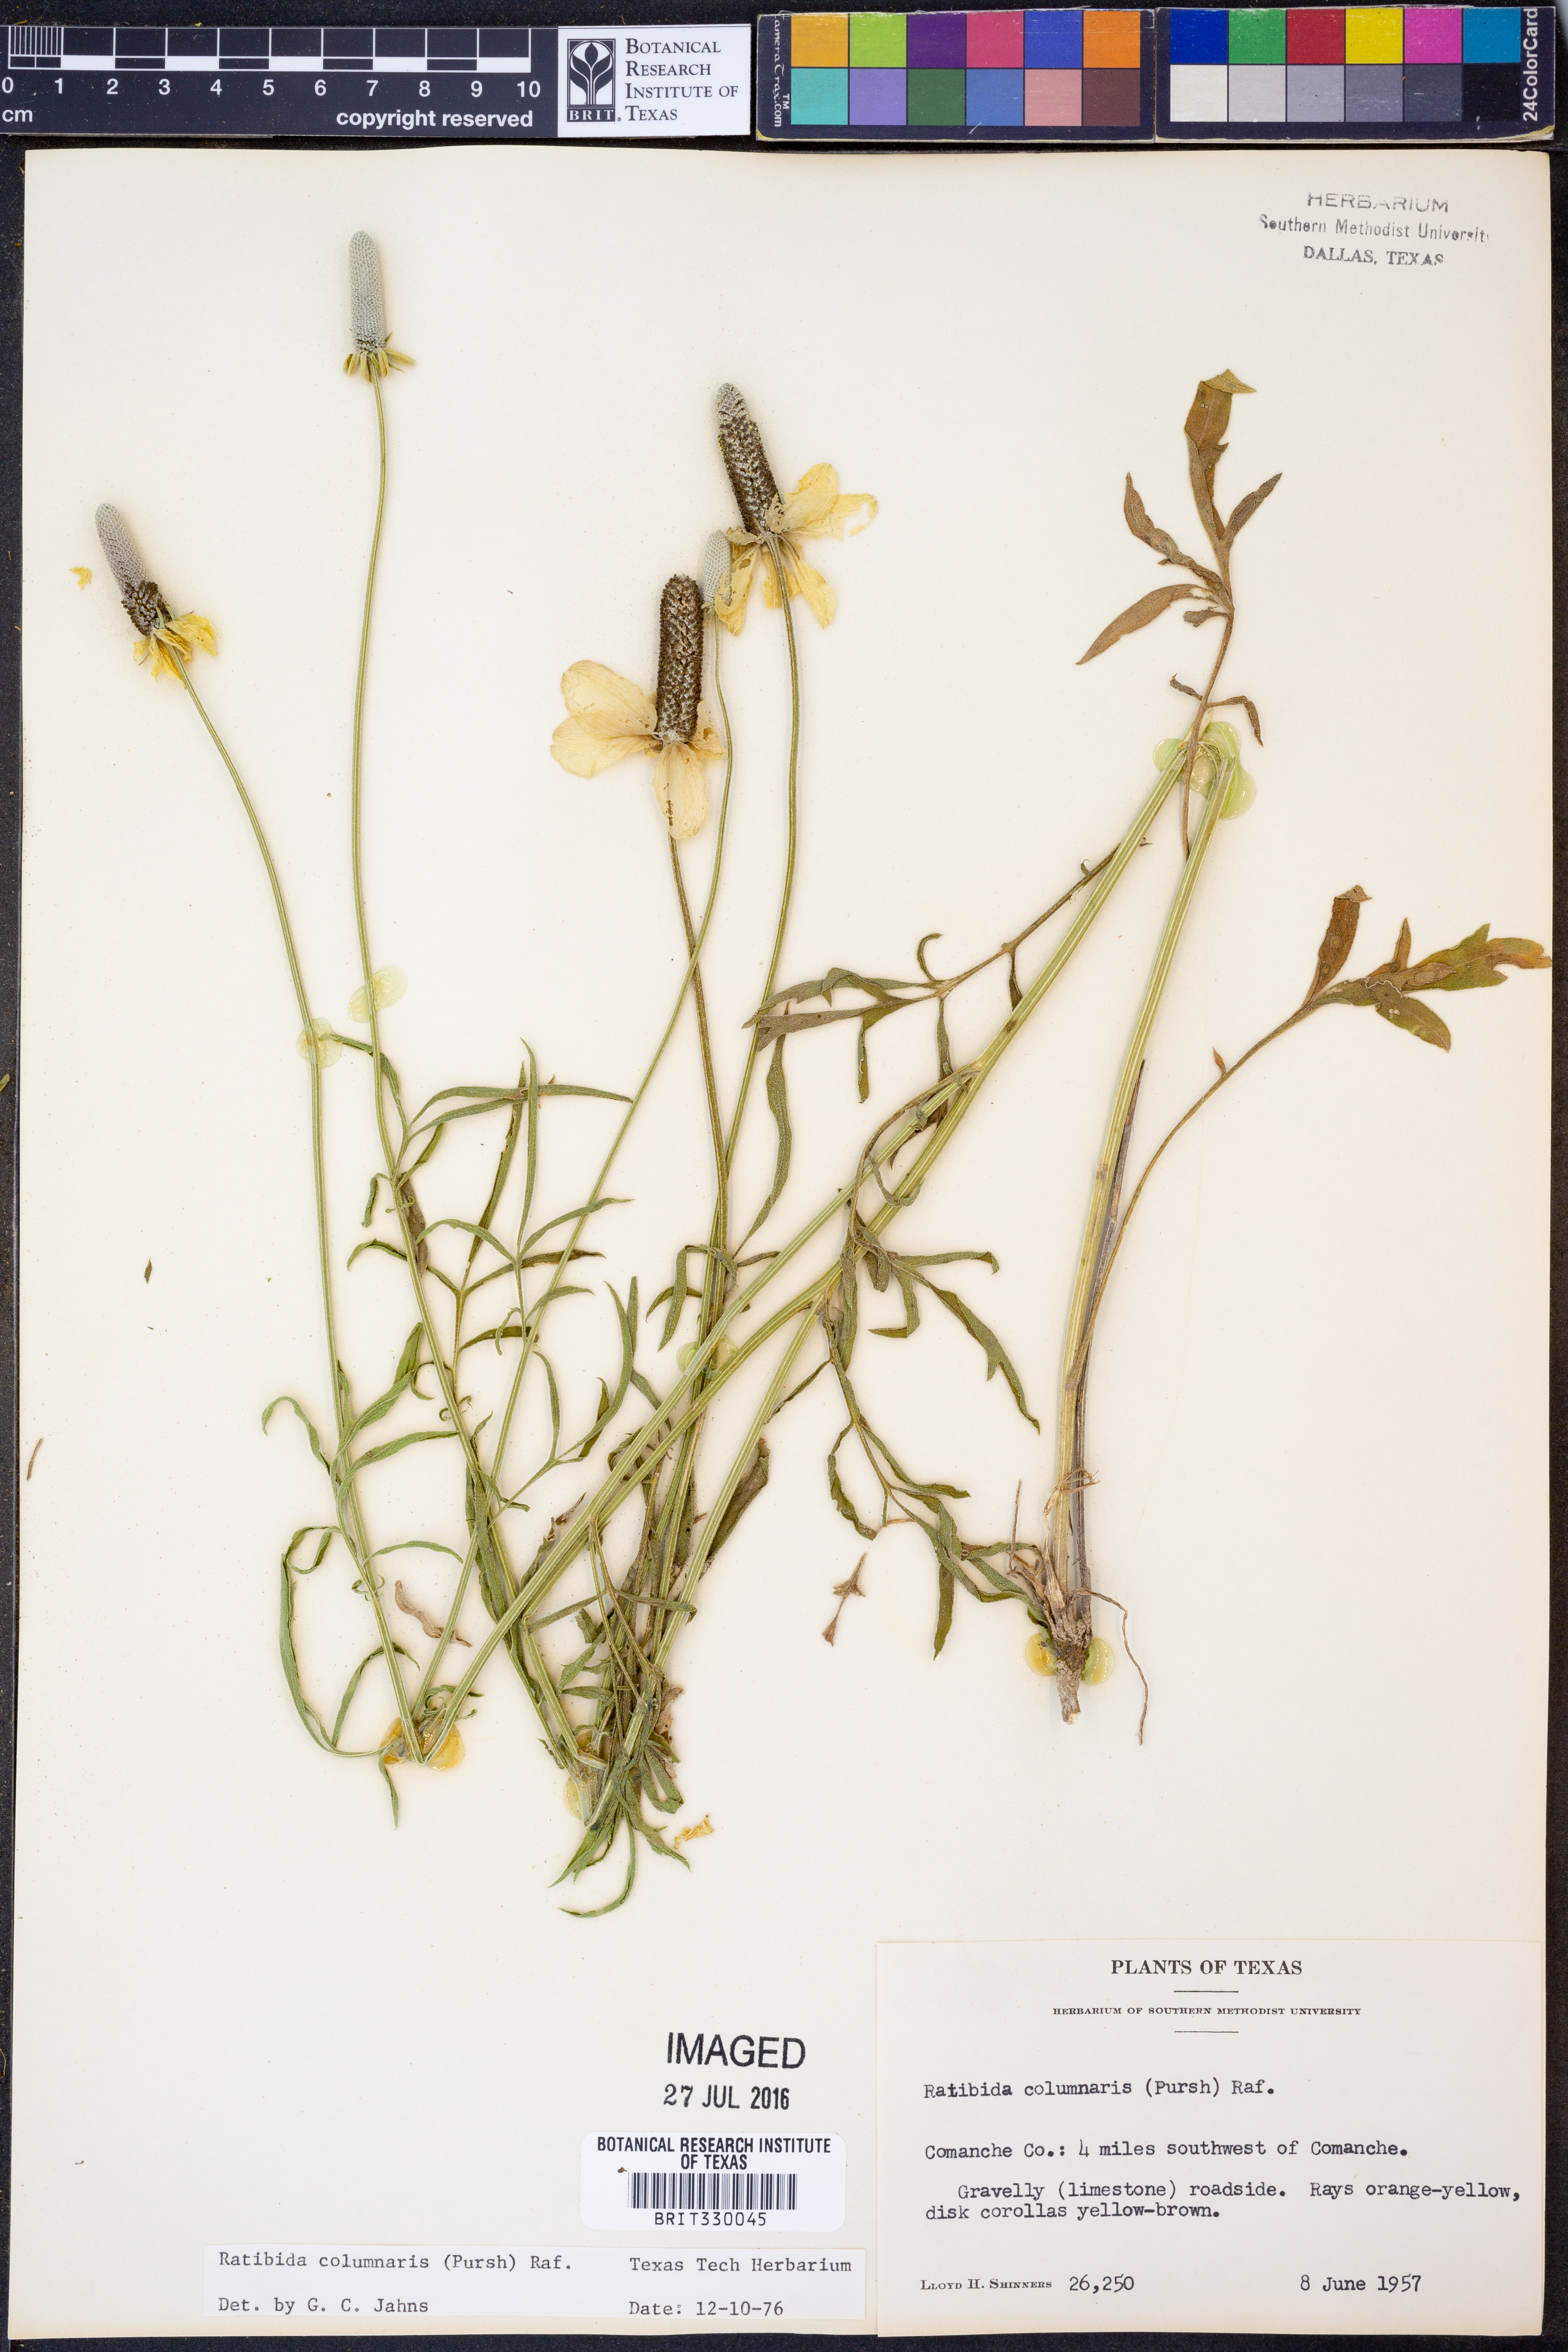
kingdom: Plantae
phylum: Tracheophyta
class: Magnoliopsida
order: Asterales
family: Asteraceae
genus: Ratibida
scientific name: Ratibida columnifera
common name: Prairie coneflower
